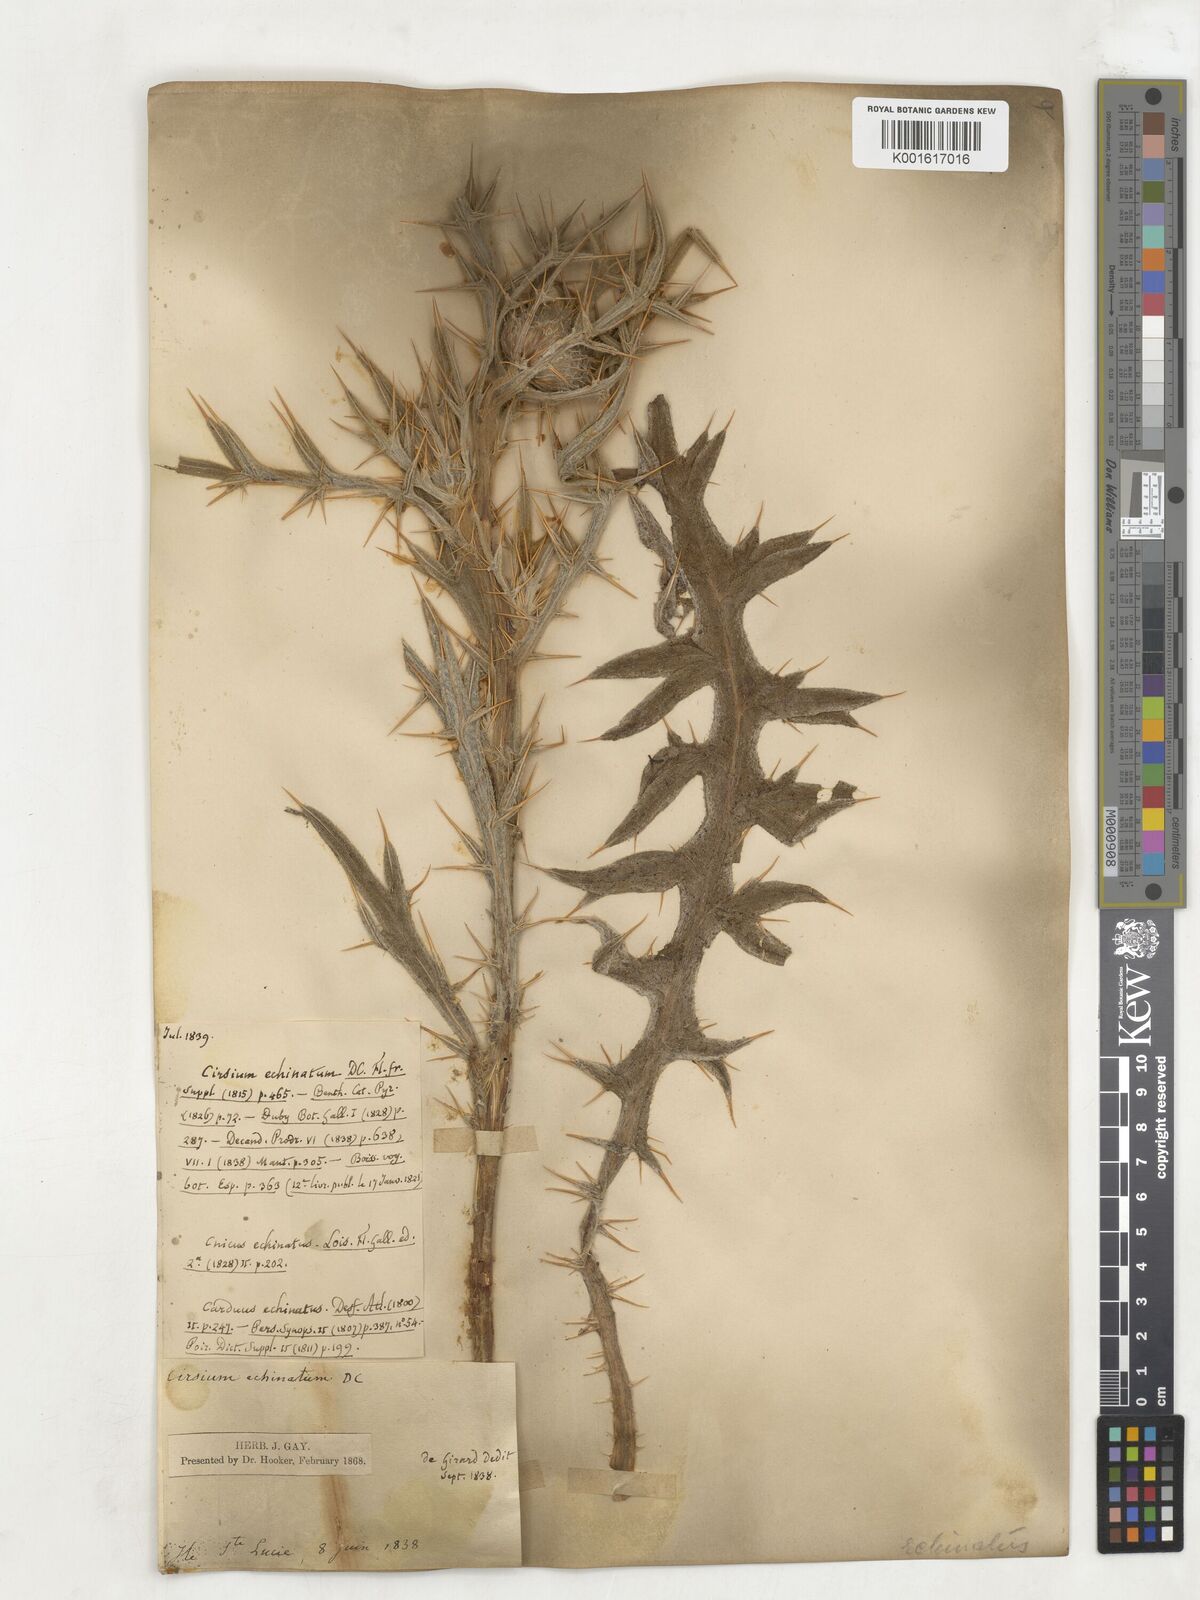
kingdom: Plantae
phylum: Tracheophyta
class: Magnoliopsida
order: Asterales
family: Asteraceae
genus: Lophiolepis
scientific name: Lophiolepis echinata
